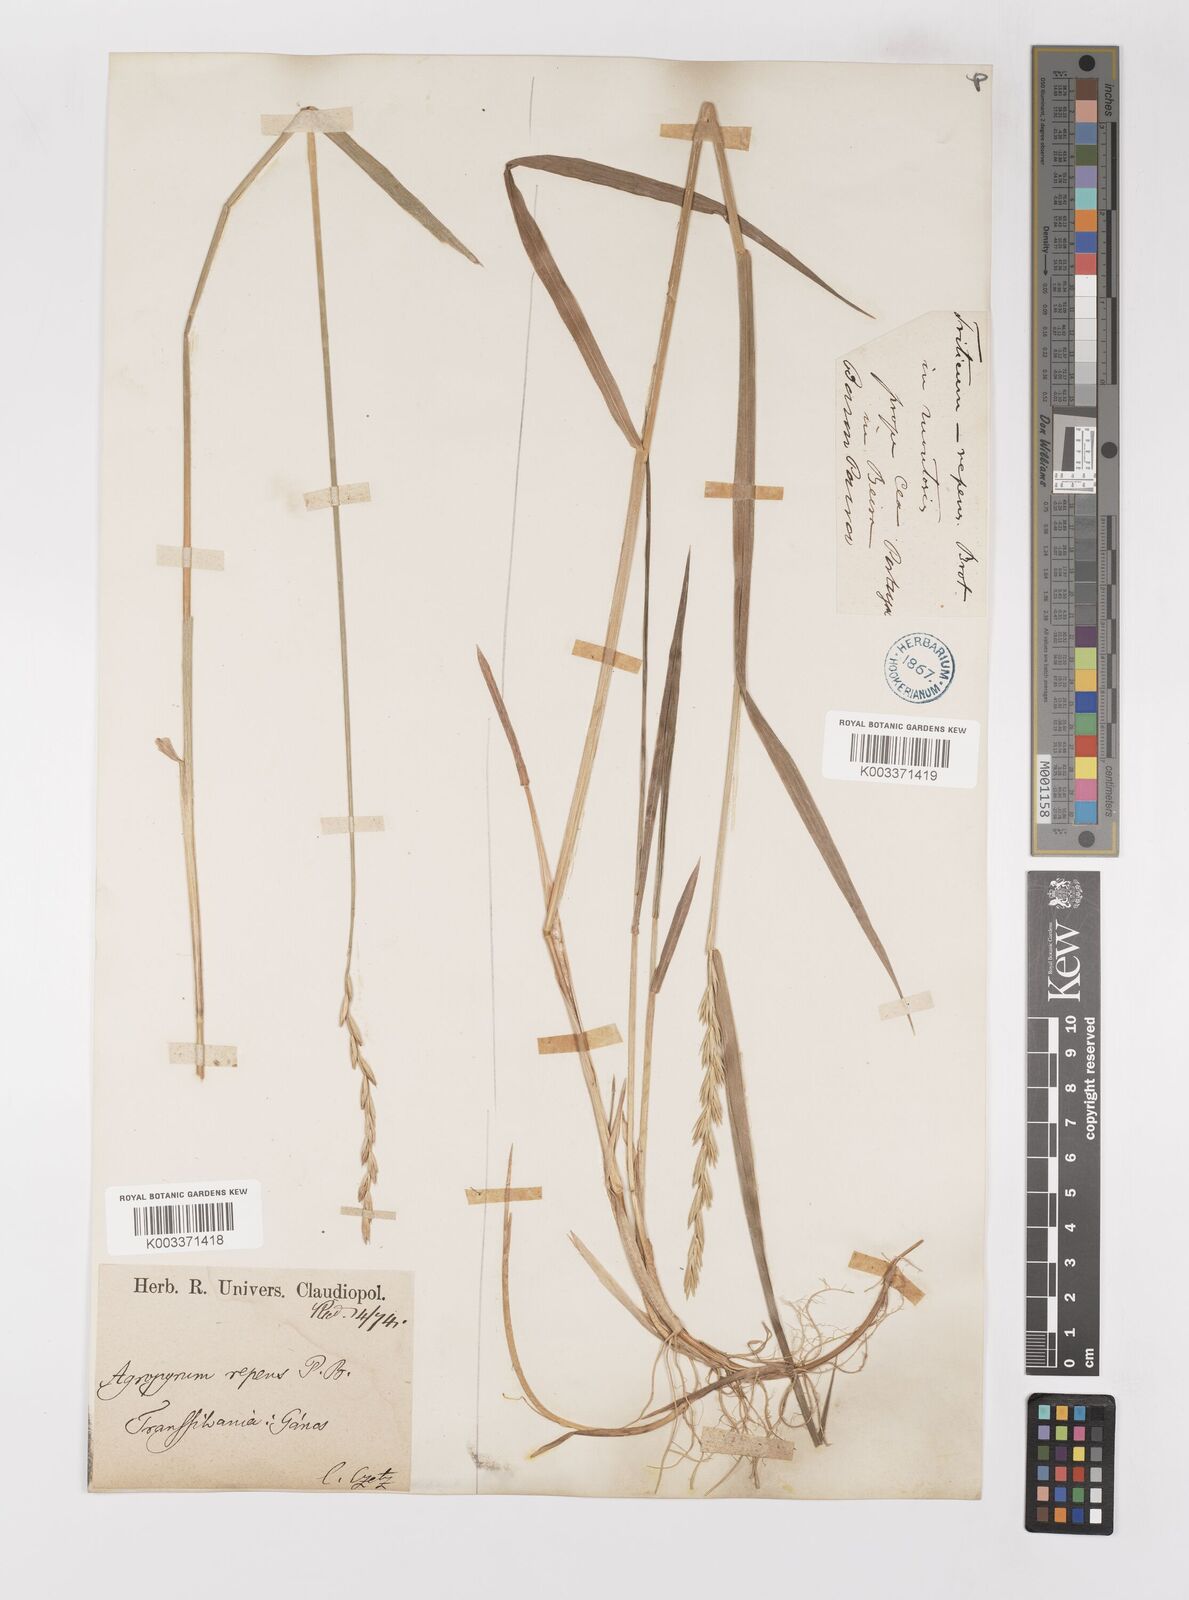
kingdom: Plantae
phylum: Tracheophyta
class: Liliopsida
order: Poales
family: Poaceae
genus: Elymus
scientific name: Elymus repens
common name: Quackgrass
